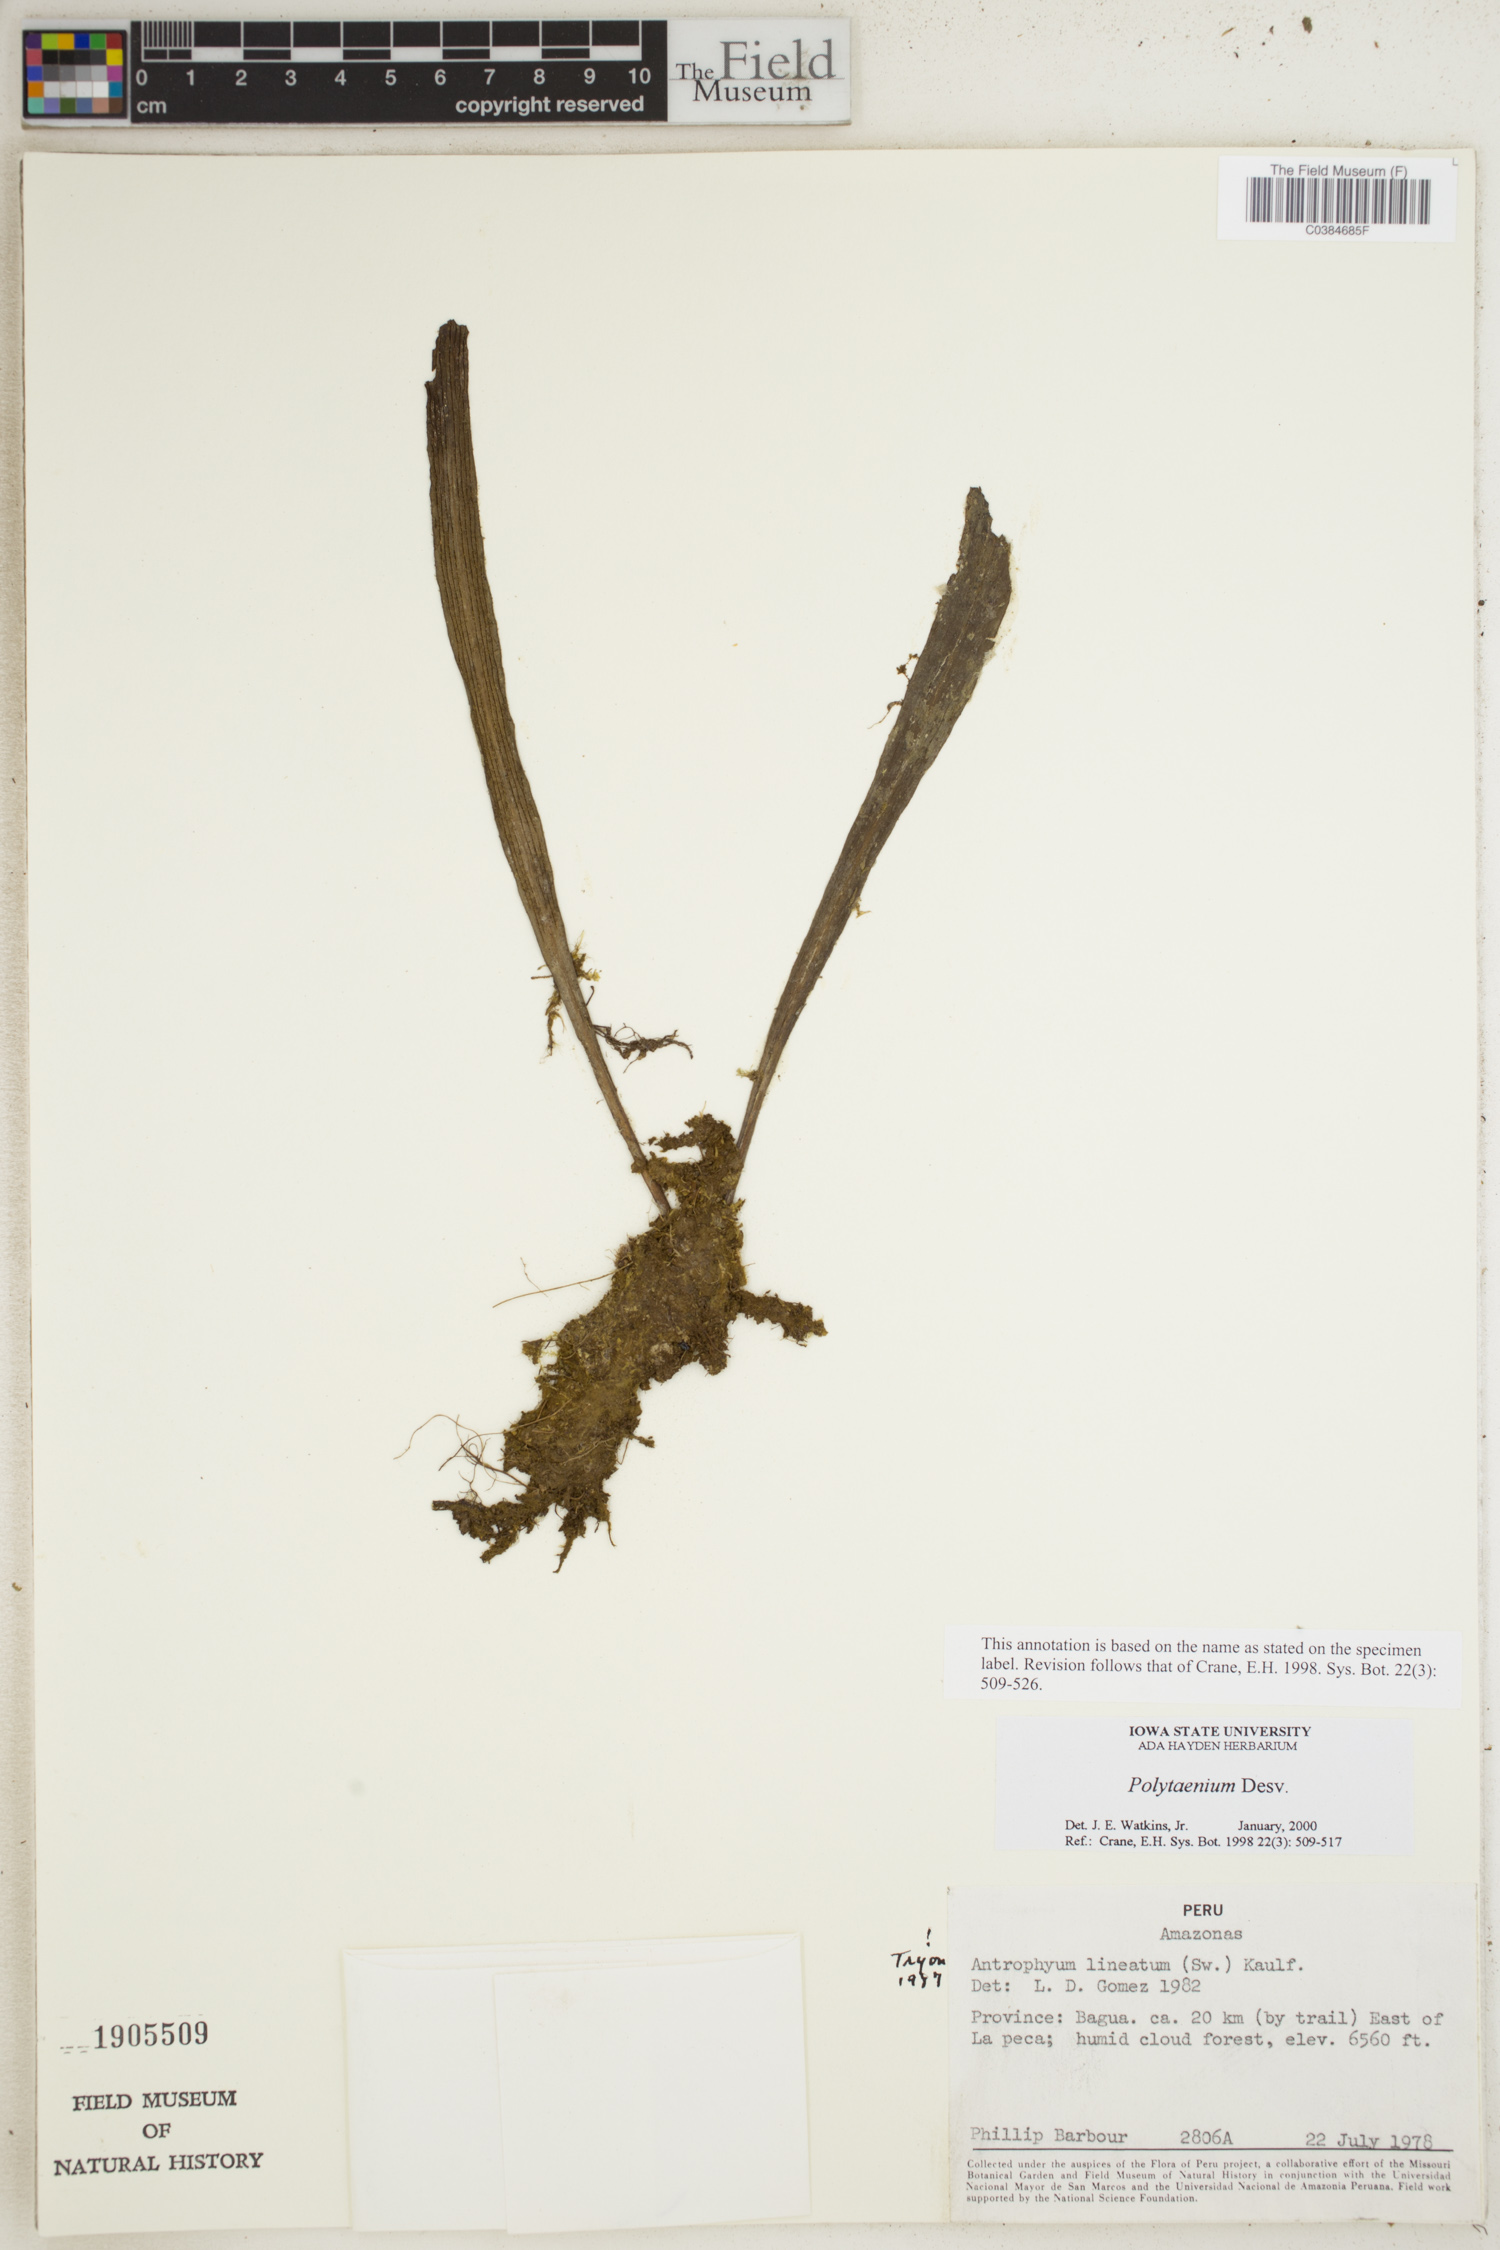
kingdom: Plantae
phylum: Tracheophyta
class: Polypodiopsida
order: Polypodiales
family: Pteridaceae
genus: Polytaenium
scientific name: Polytaenium
